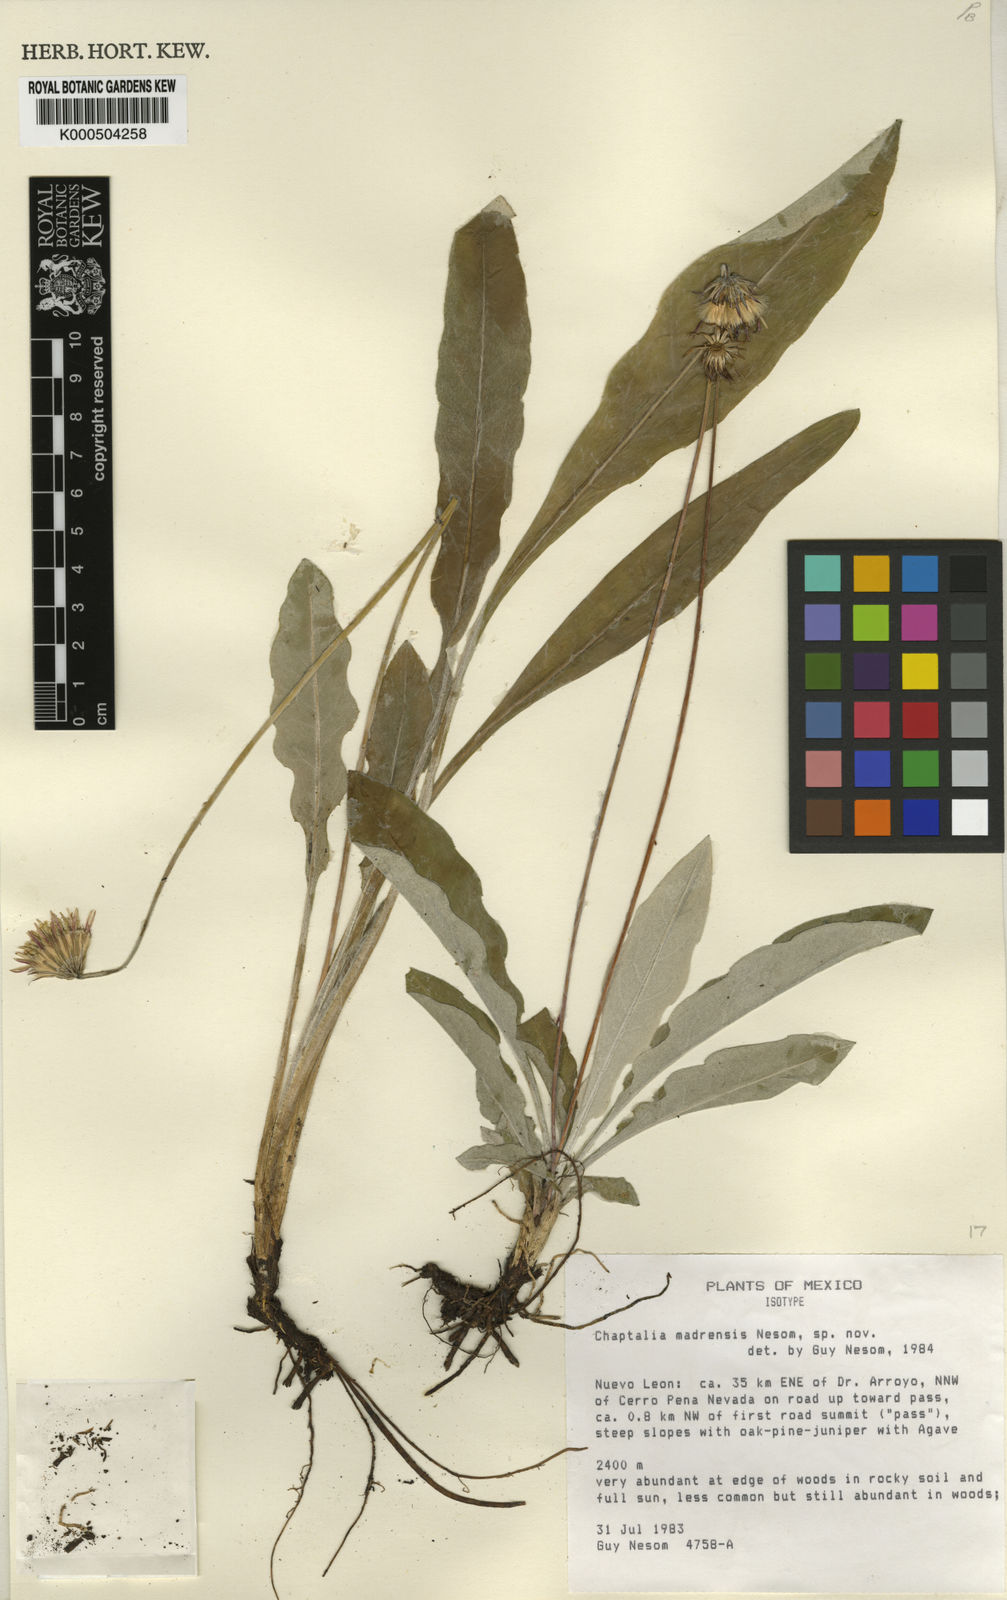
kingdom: Plantae
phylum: Tracheophyta
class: Magnoliopsida
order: Asterales
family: Asteraceae
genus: Chaptalia
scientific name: Chaptalia madrensis
